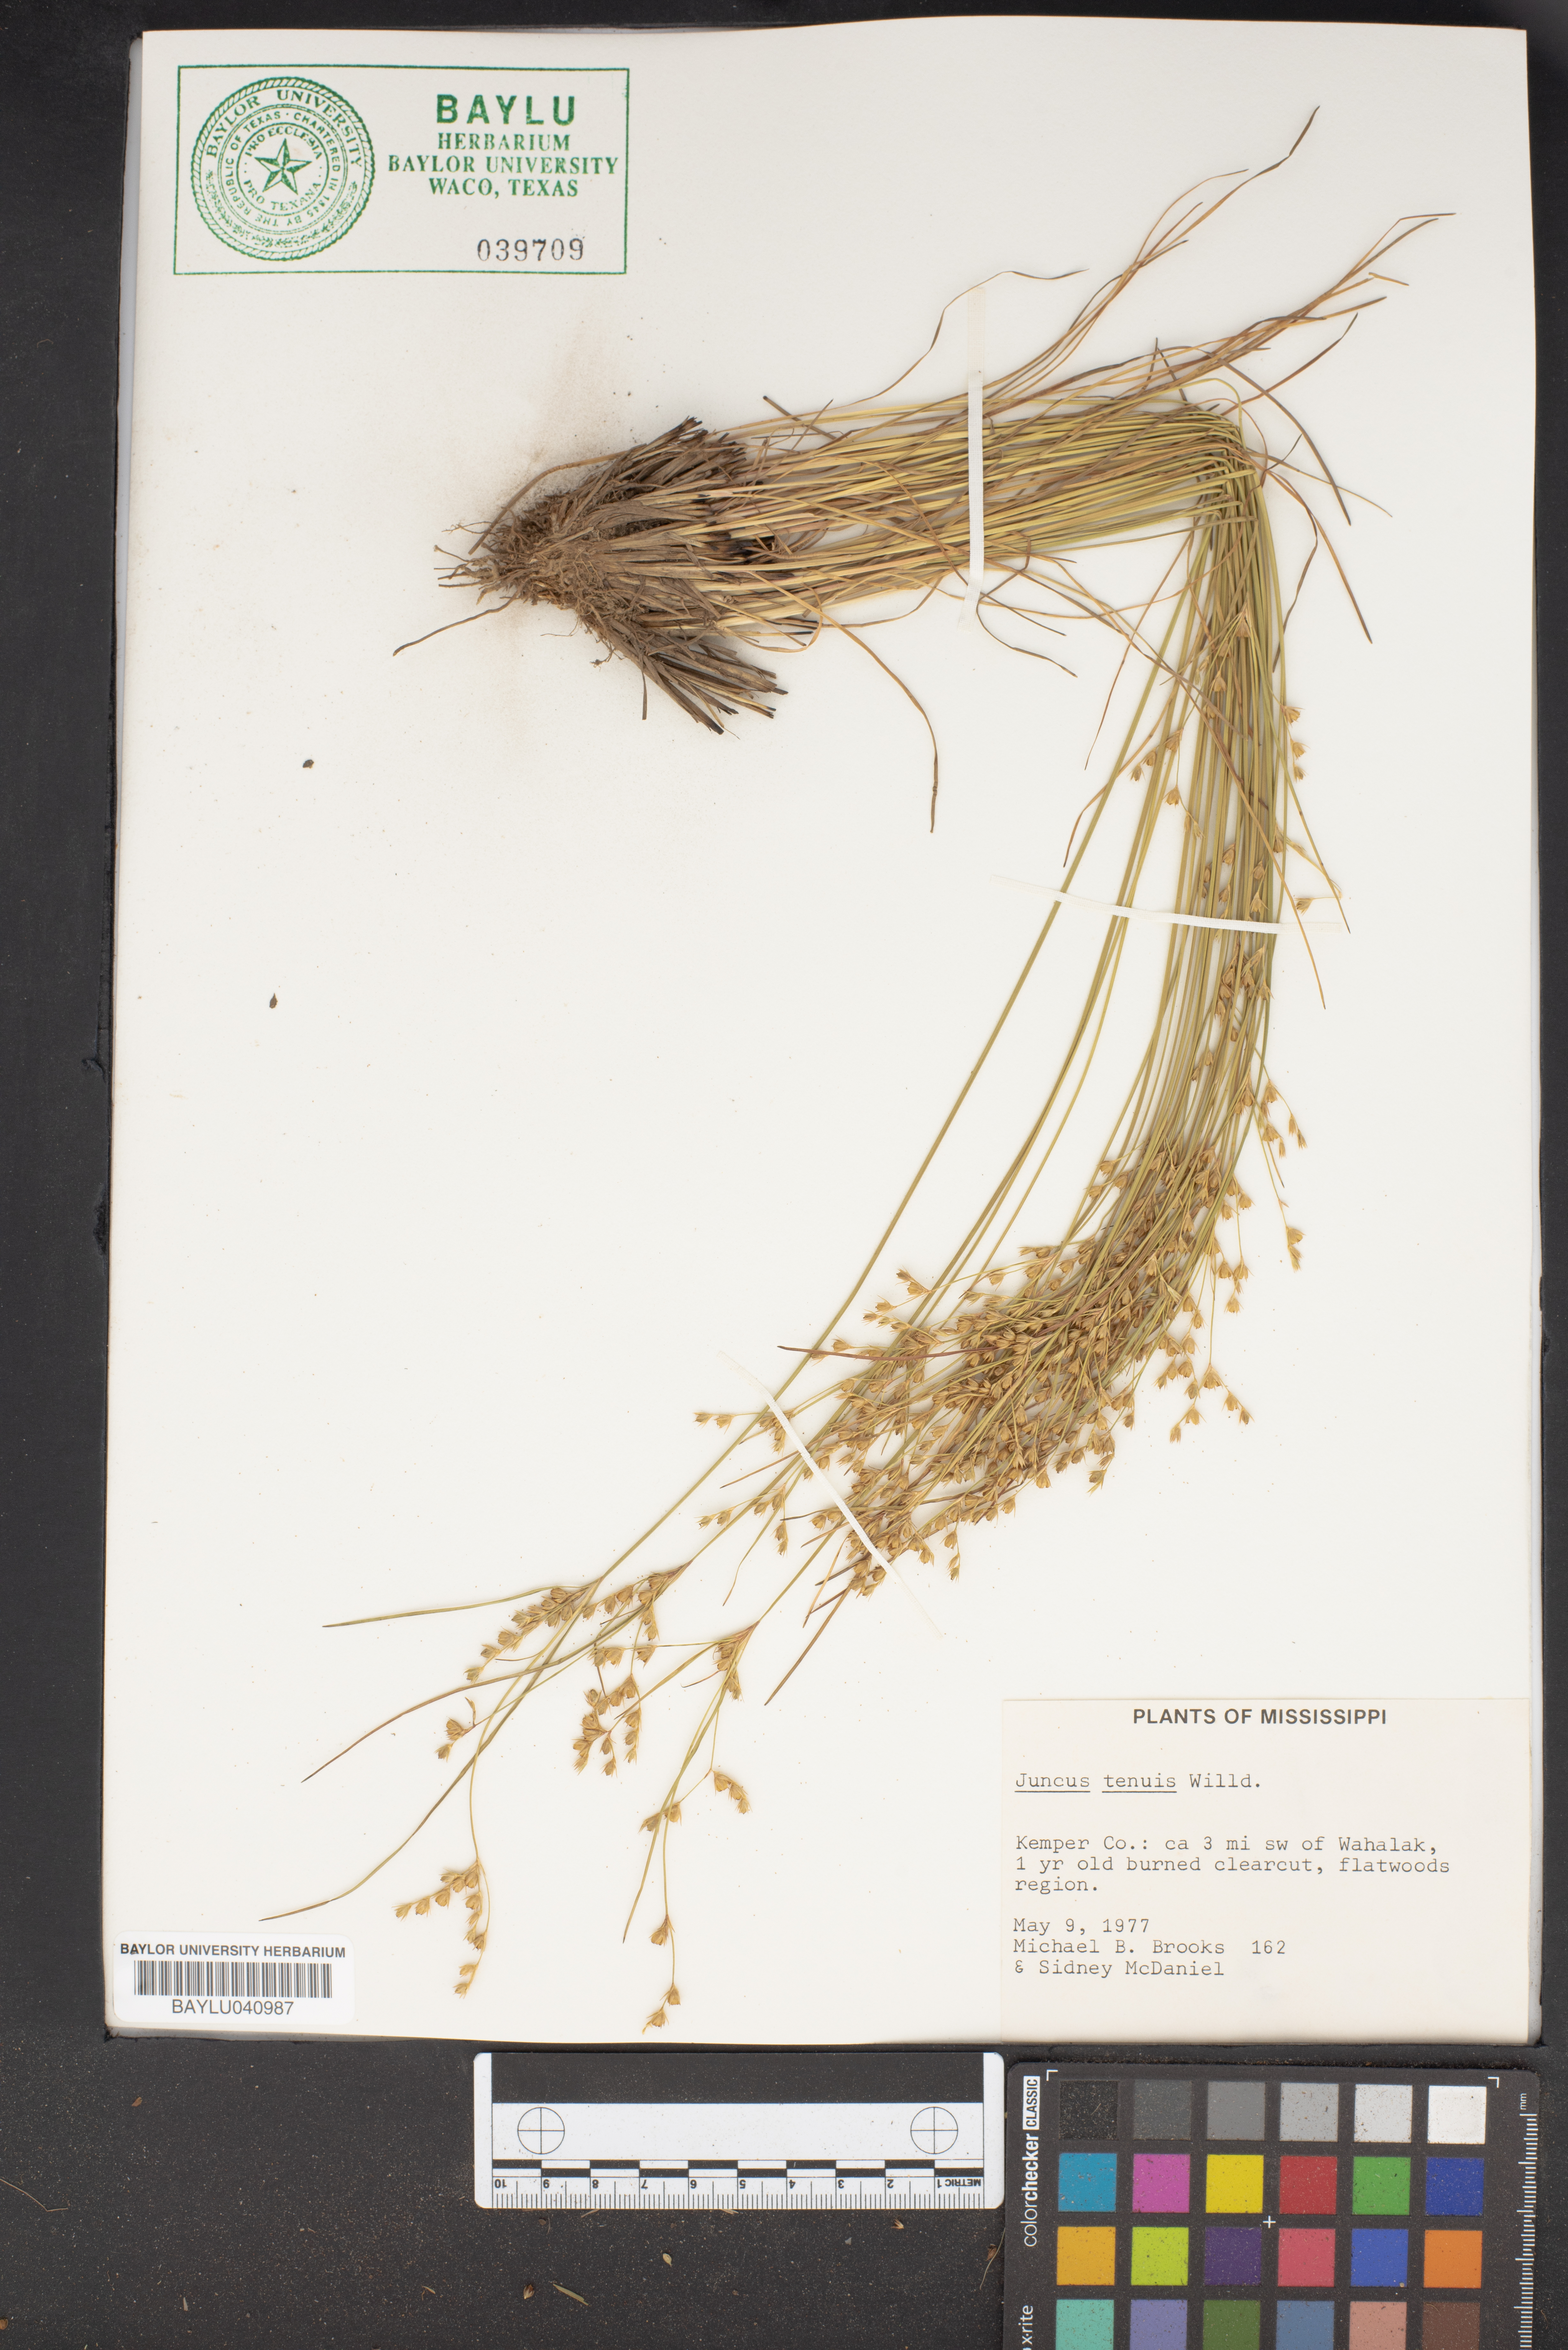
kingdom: Plantae
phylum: Tracheophyta
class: Liliopsida
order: Poales
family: Juncaceae
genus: Juncus
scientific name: Juncus tenuis
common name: Slender rush
